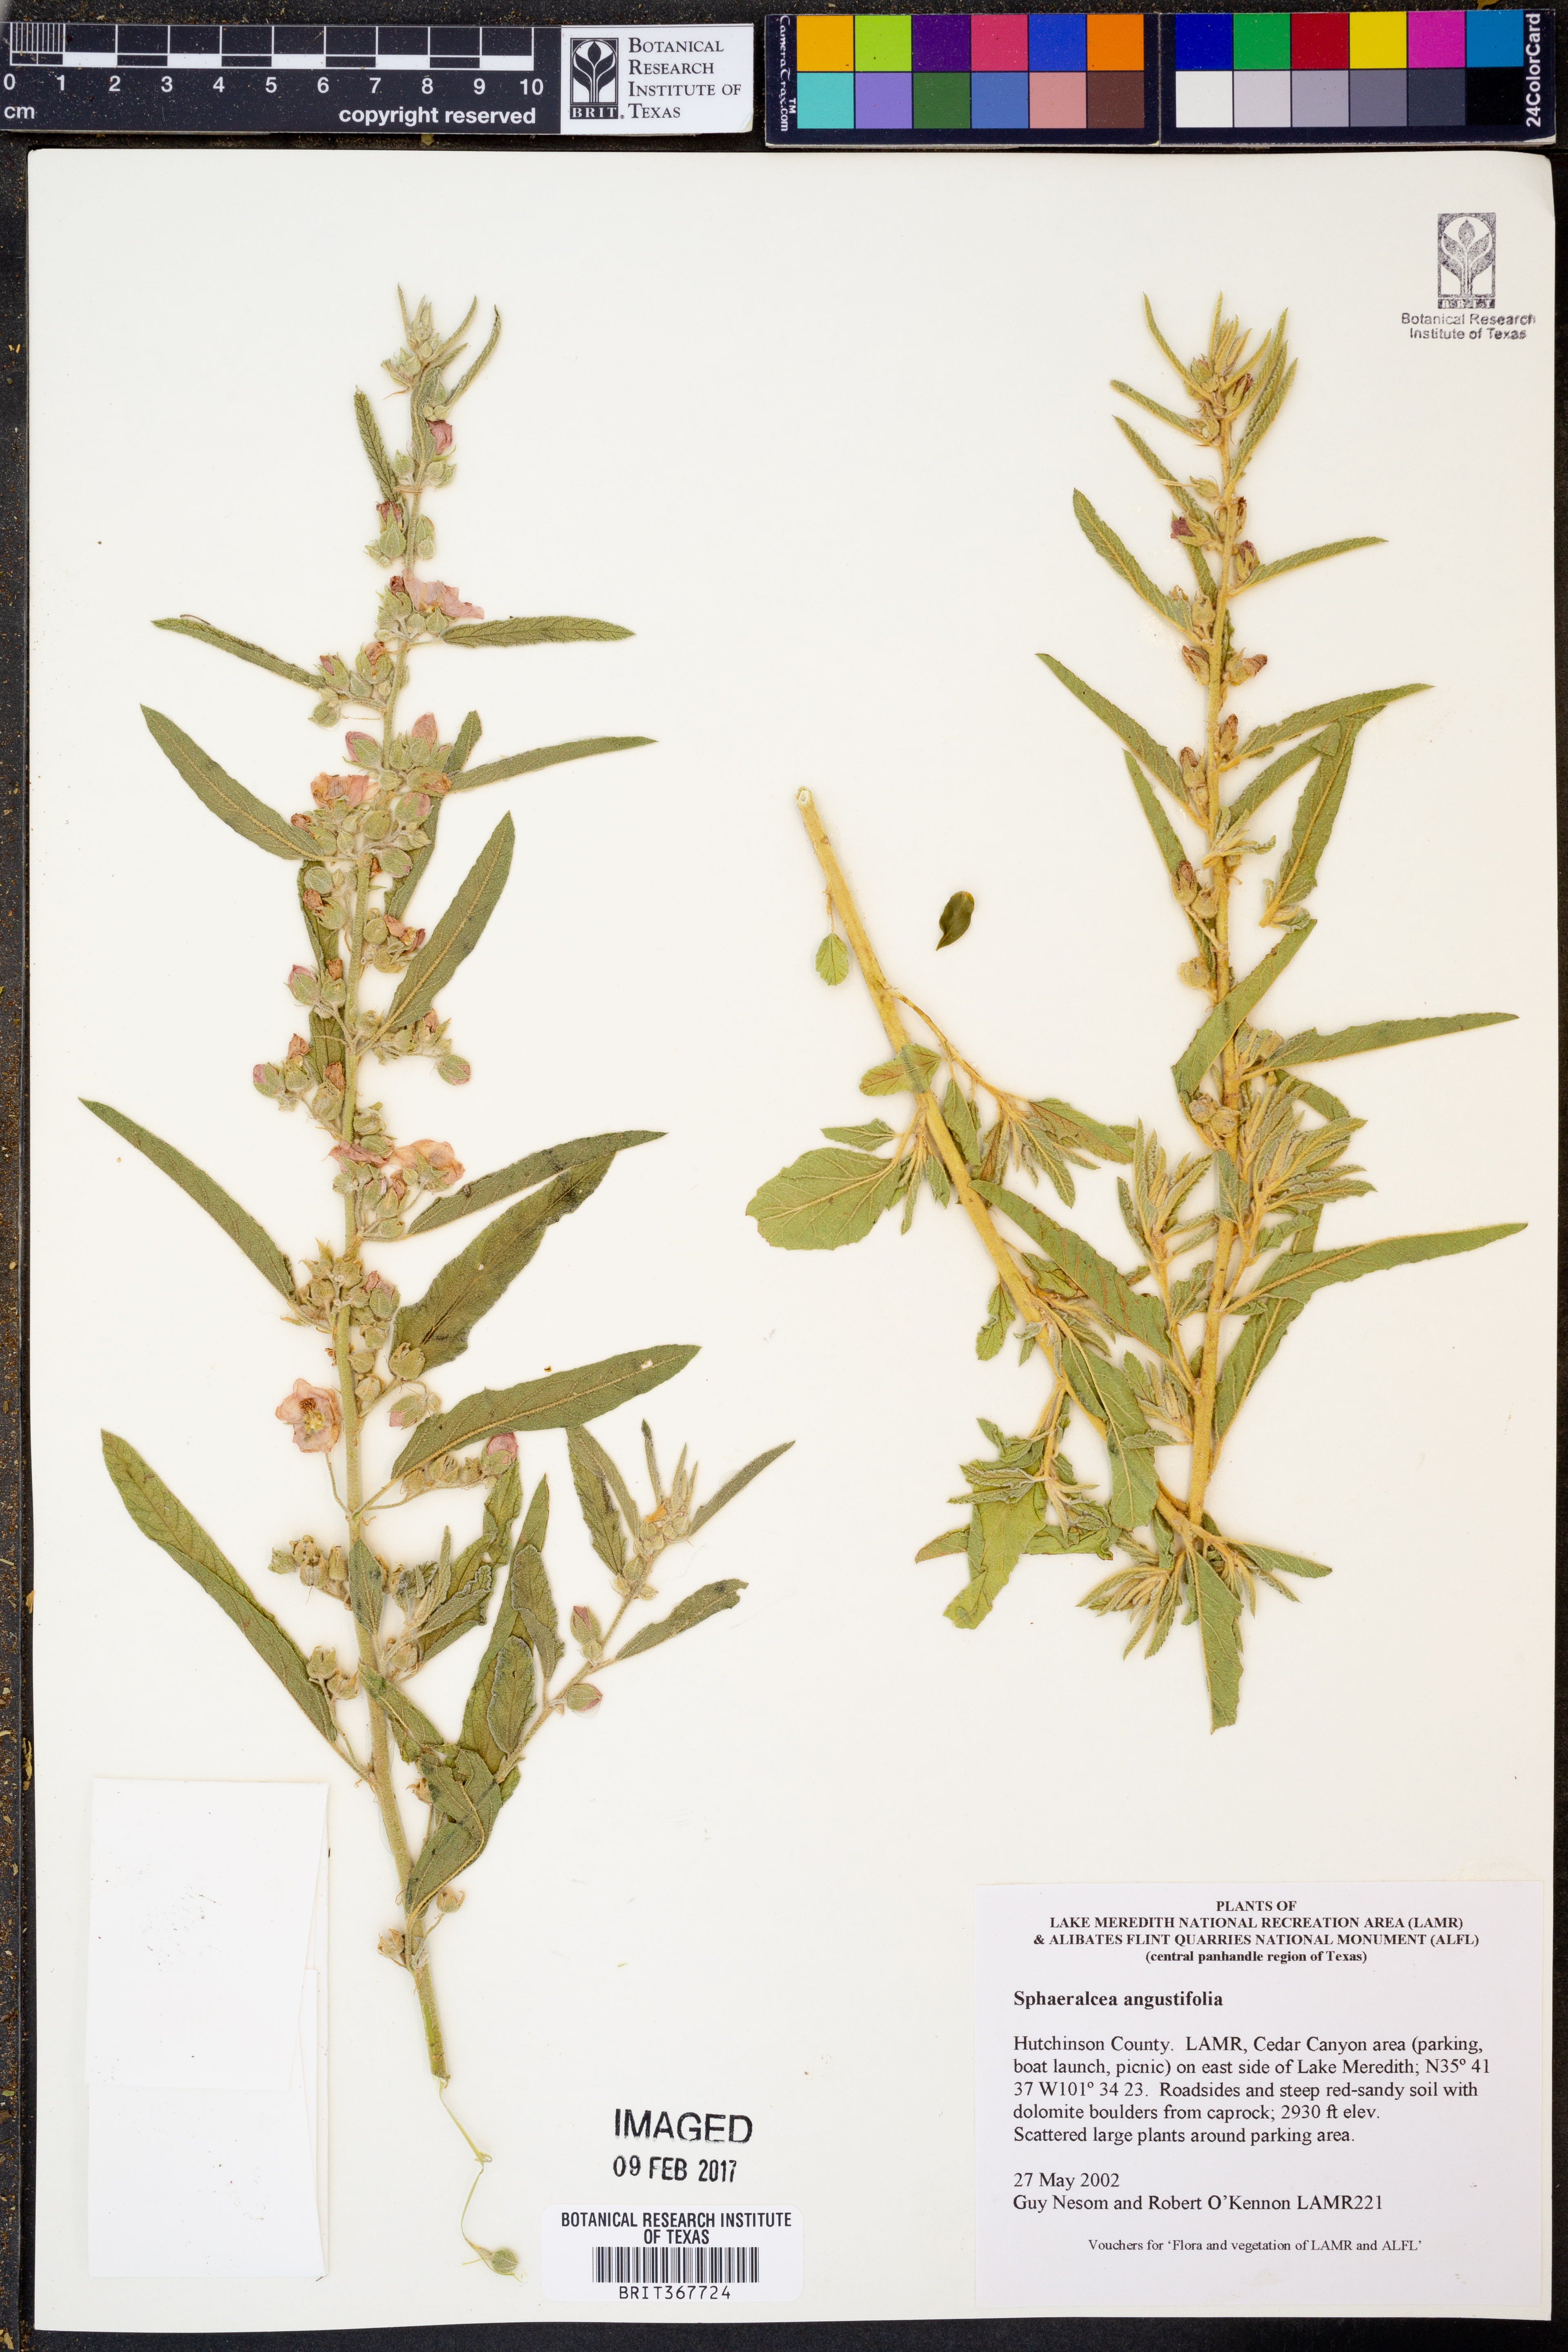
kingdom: Plantae
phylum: Tracheophyta
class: Magnoliopsida
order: Malvales
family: Malvaceae
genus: Sphaeralcea
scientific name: Sphaeralcea angustifolia
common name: Copper globe-mallow
